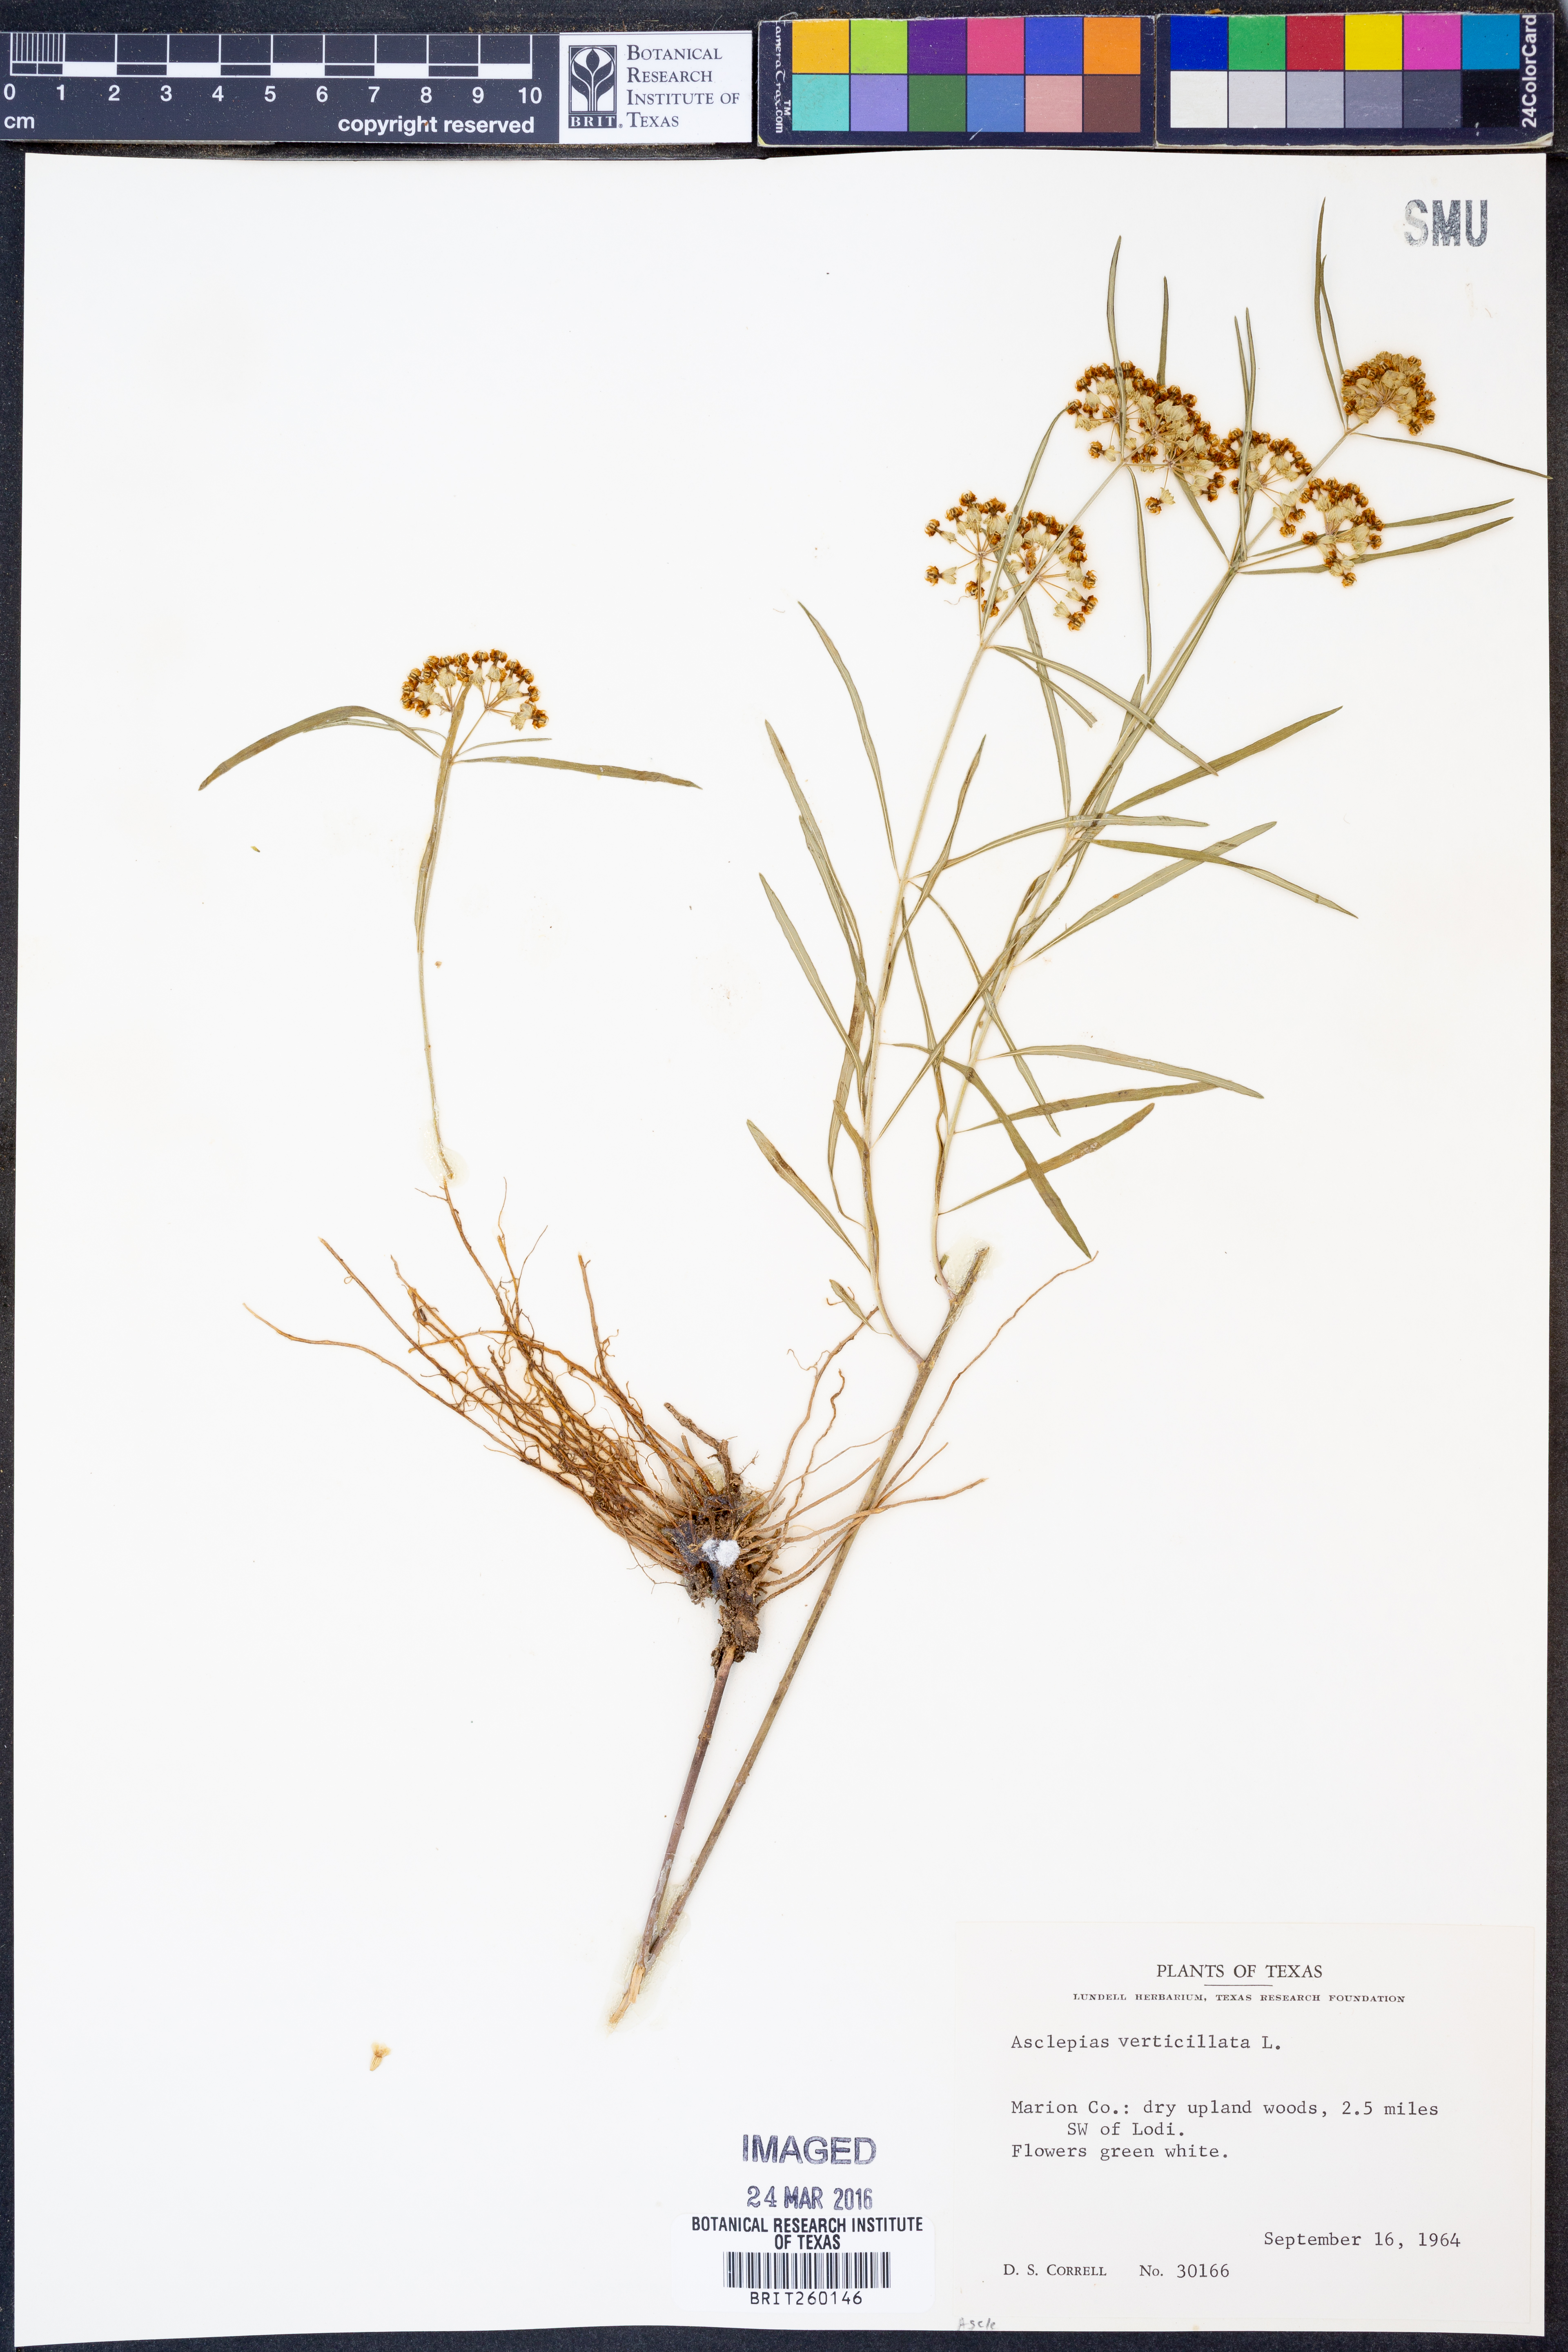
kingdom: Plantae
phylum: Tracheophyta
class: Magnoliopsida
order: Gentianales
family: Apocynaceae
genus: Asclepias
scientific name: Asclepias verticillata
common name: Eastern whorled milkweed
